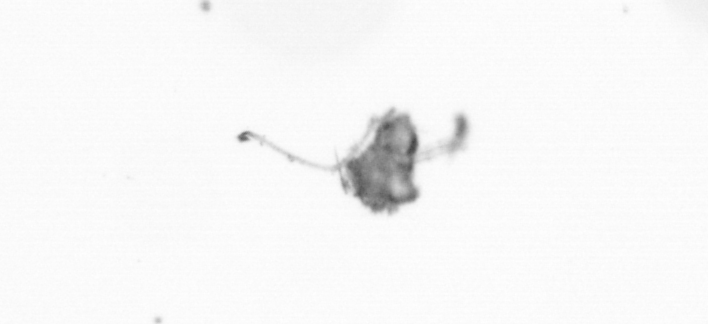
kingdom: Animalia
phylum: Arthropoda
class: Copepoda
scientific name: Copepoda
